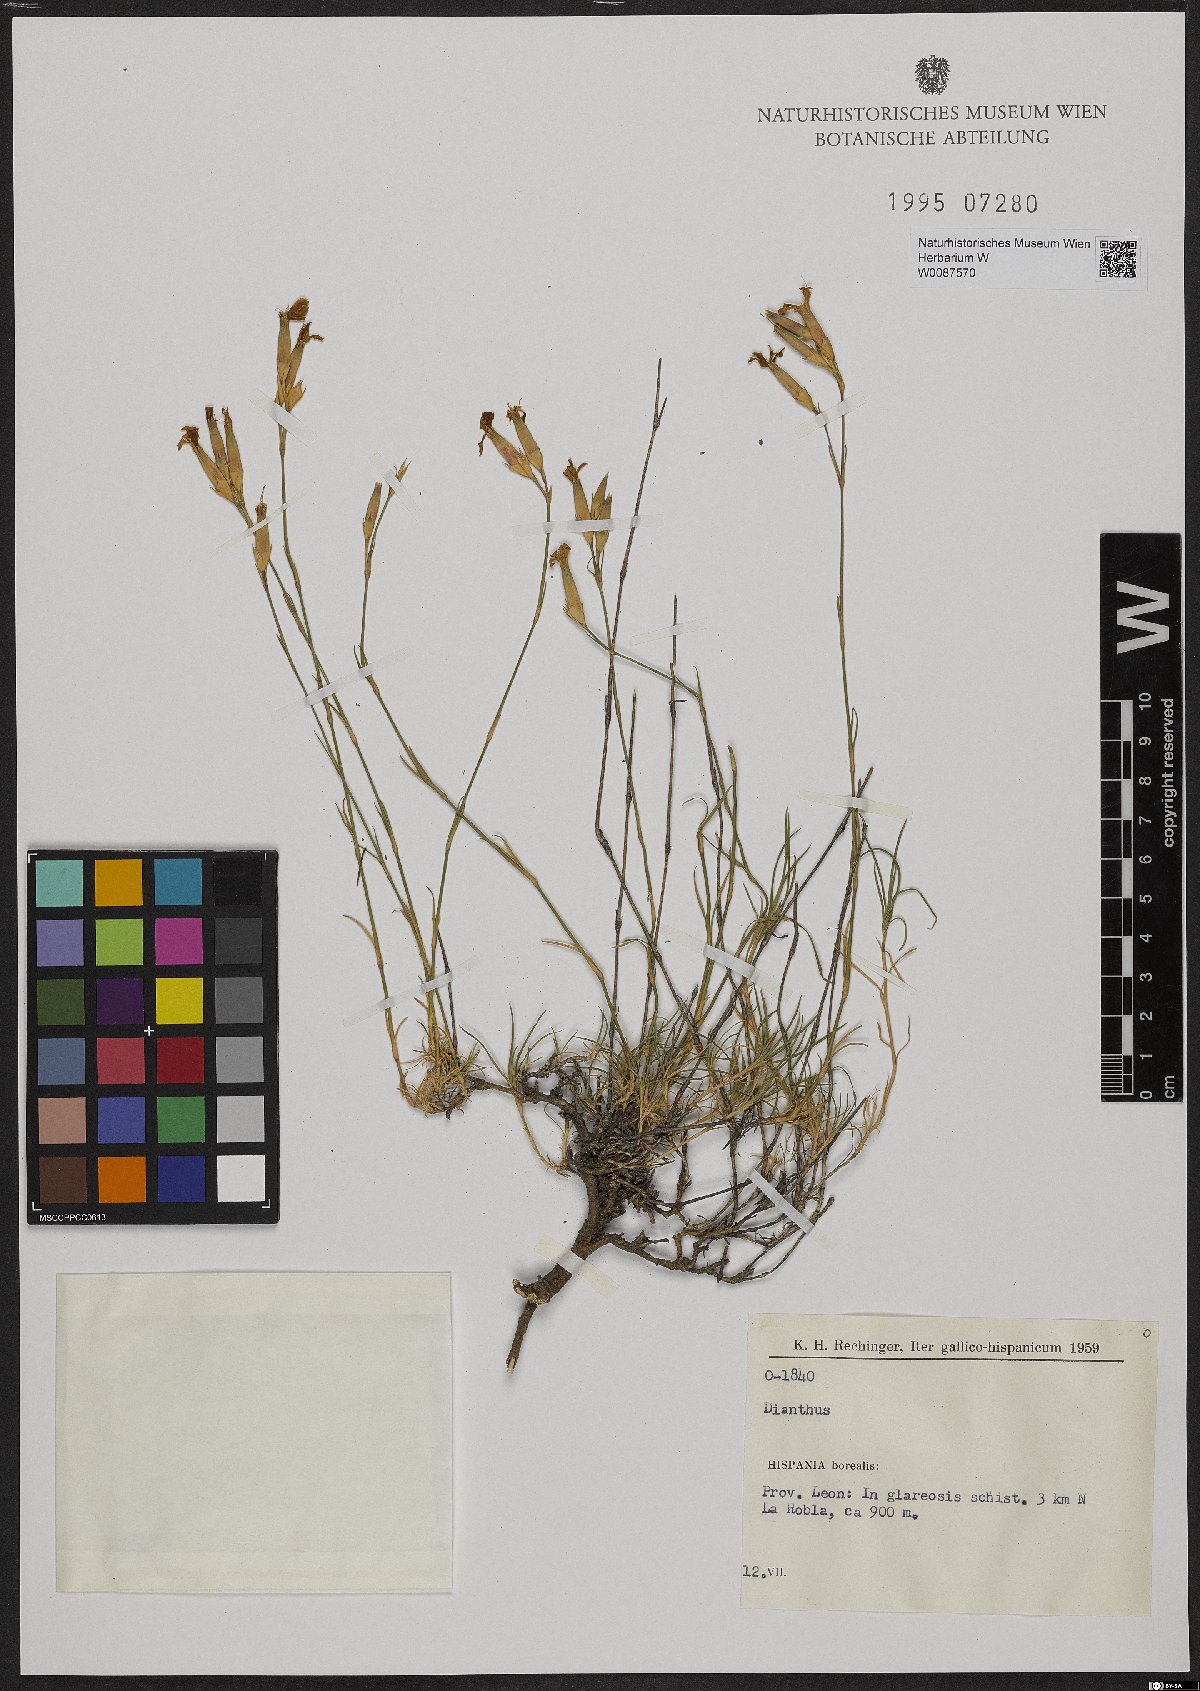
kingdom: Plantae
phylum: Tracheophyta
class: Magnoliopsida
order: Caryophyllales
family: Caryophyllaceae
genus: Dianthus
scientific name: Dianthus
